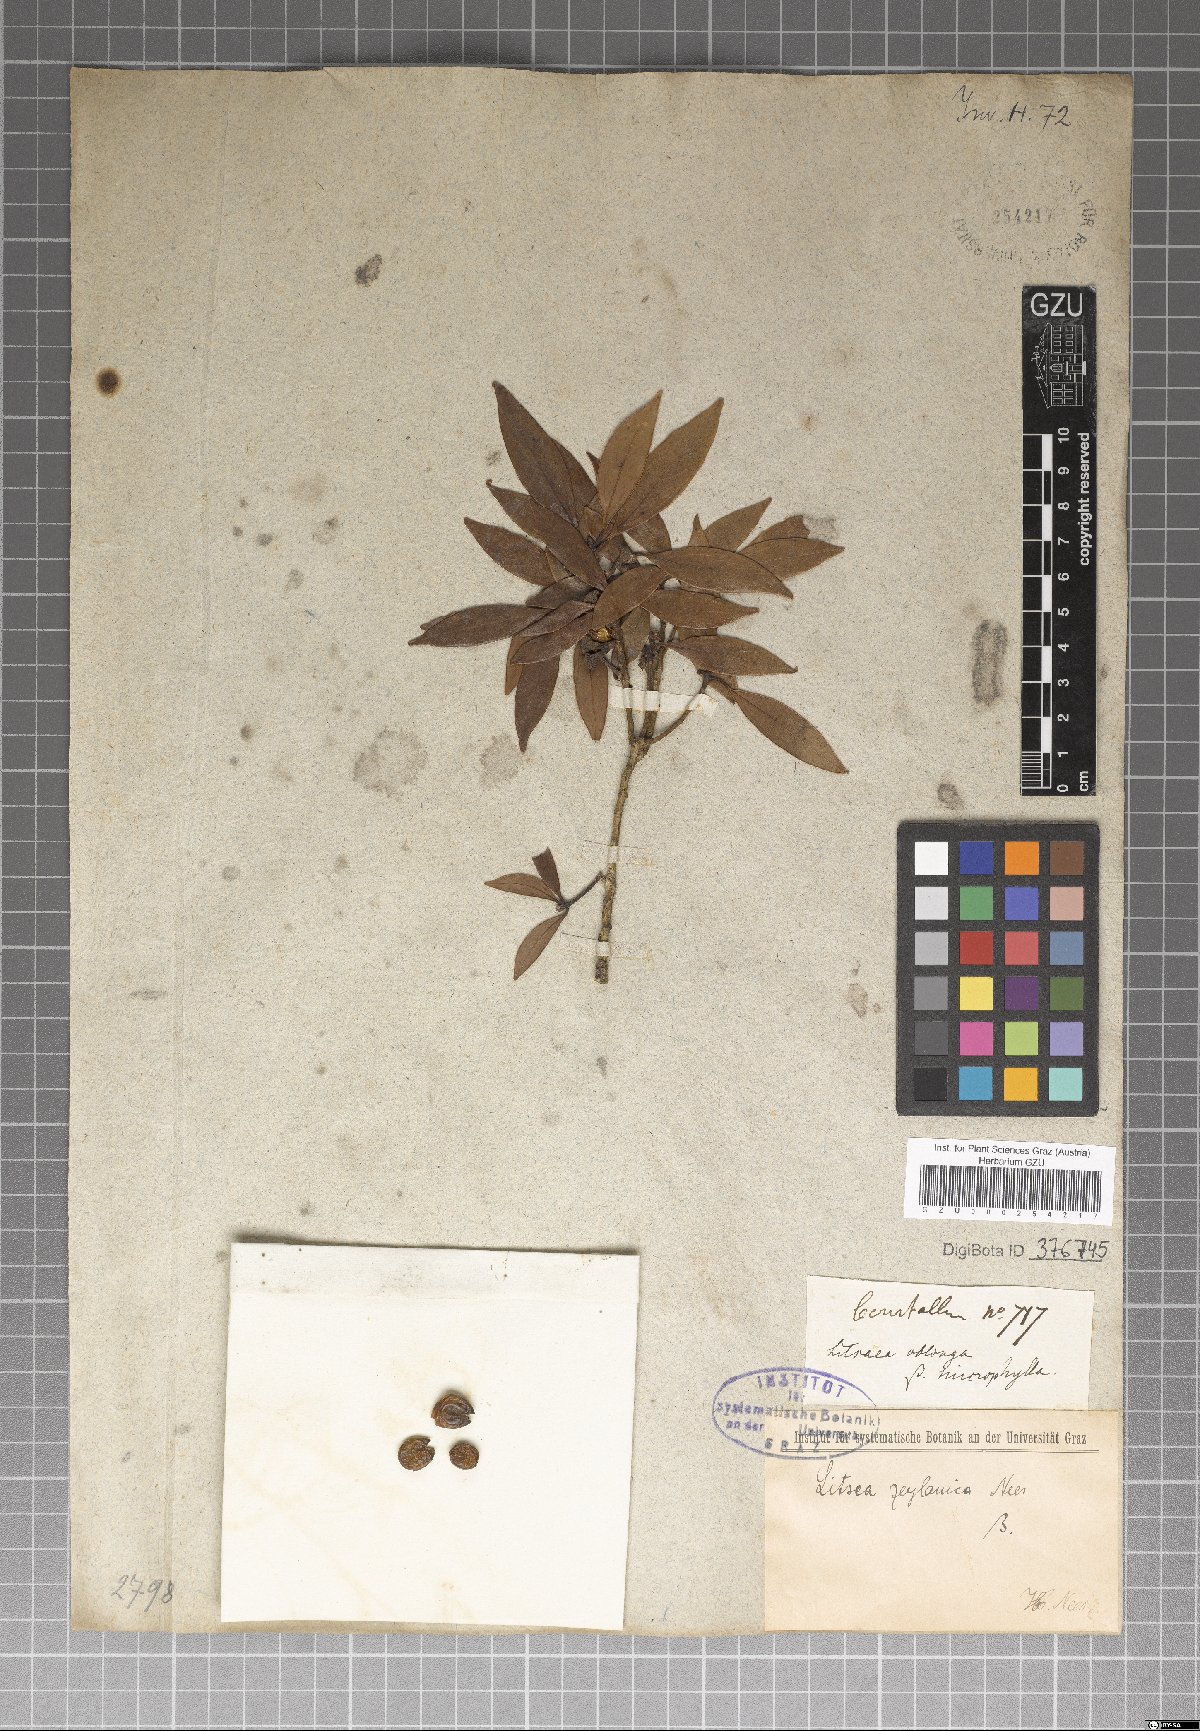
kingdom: Plantae
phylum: Tracheophyta
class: Magnoliopsida
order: Laurales
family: Lauraceae
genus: Neolitsea
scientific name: Neolitsea cassia
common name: Laurel
